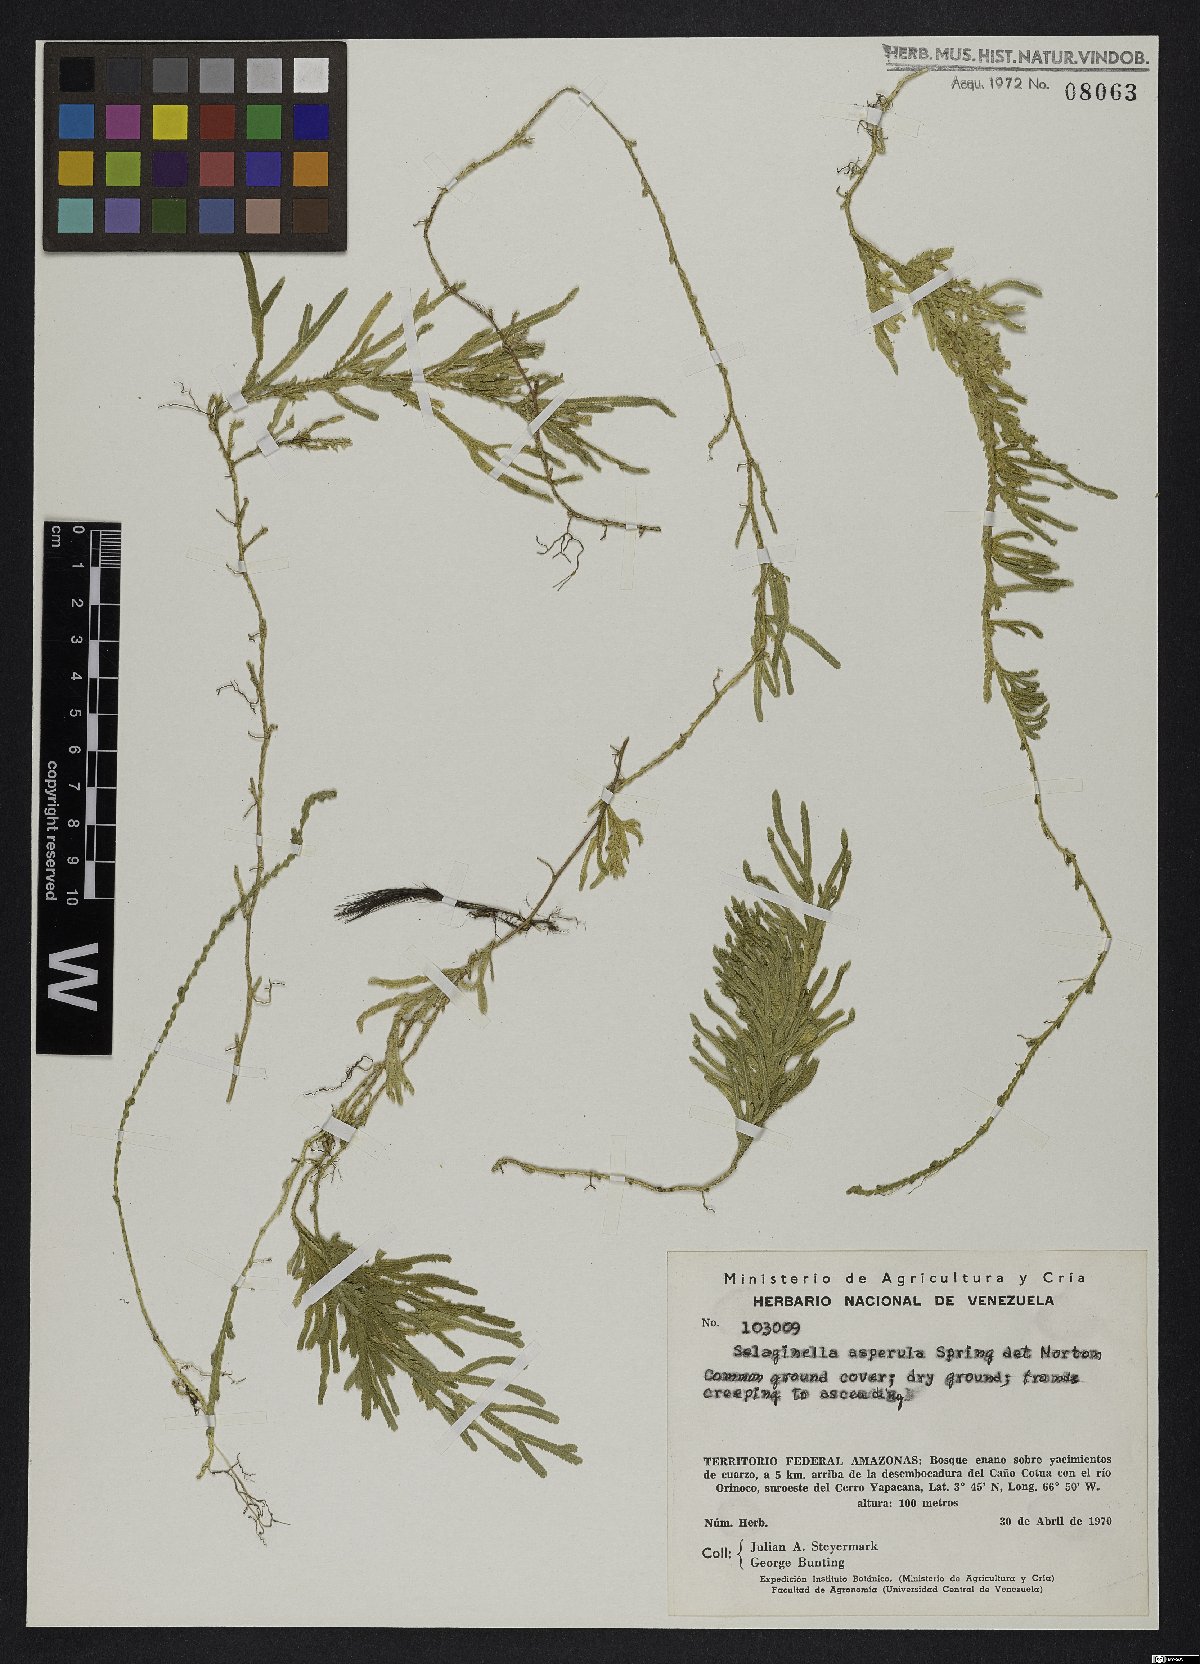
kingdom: Plantae
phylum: Tracheophyta
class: Lycopodiopsida
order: Selaginellales
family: Selaginellaceae
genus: Selaginella
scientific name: Selaginella asperula
